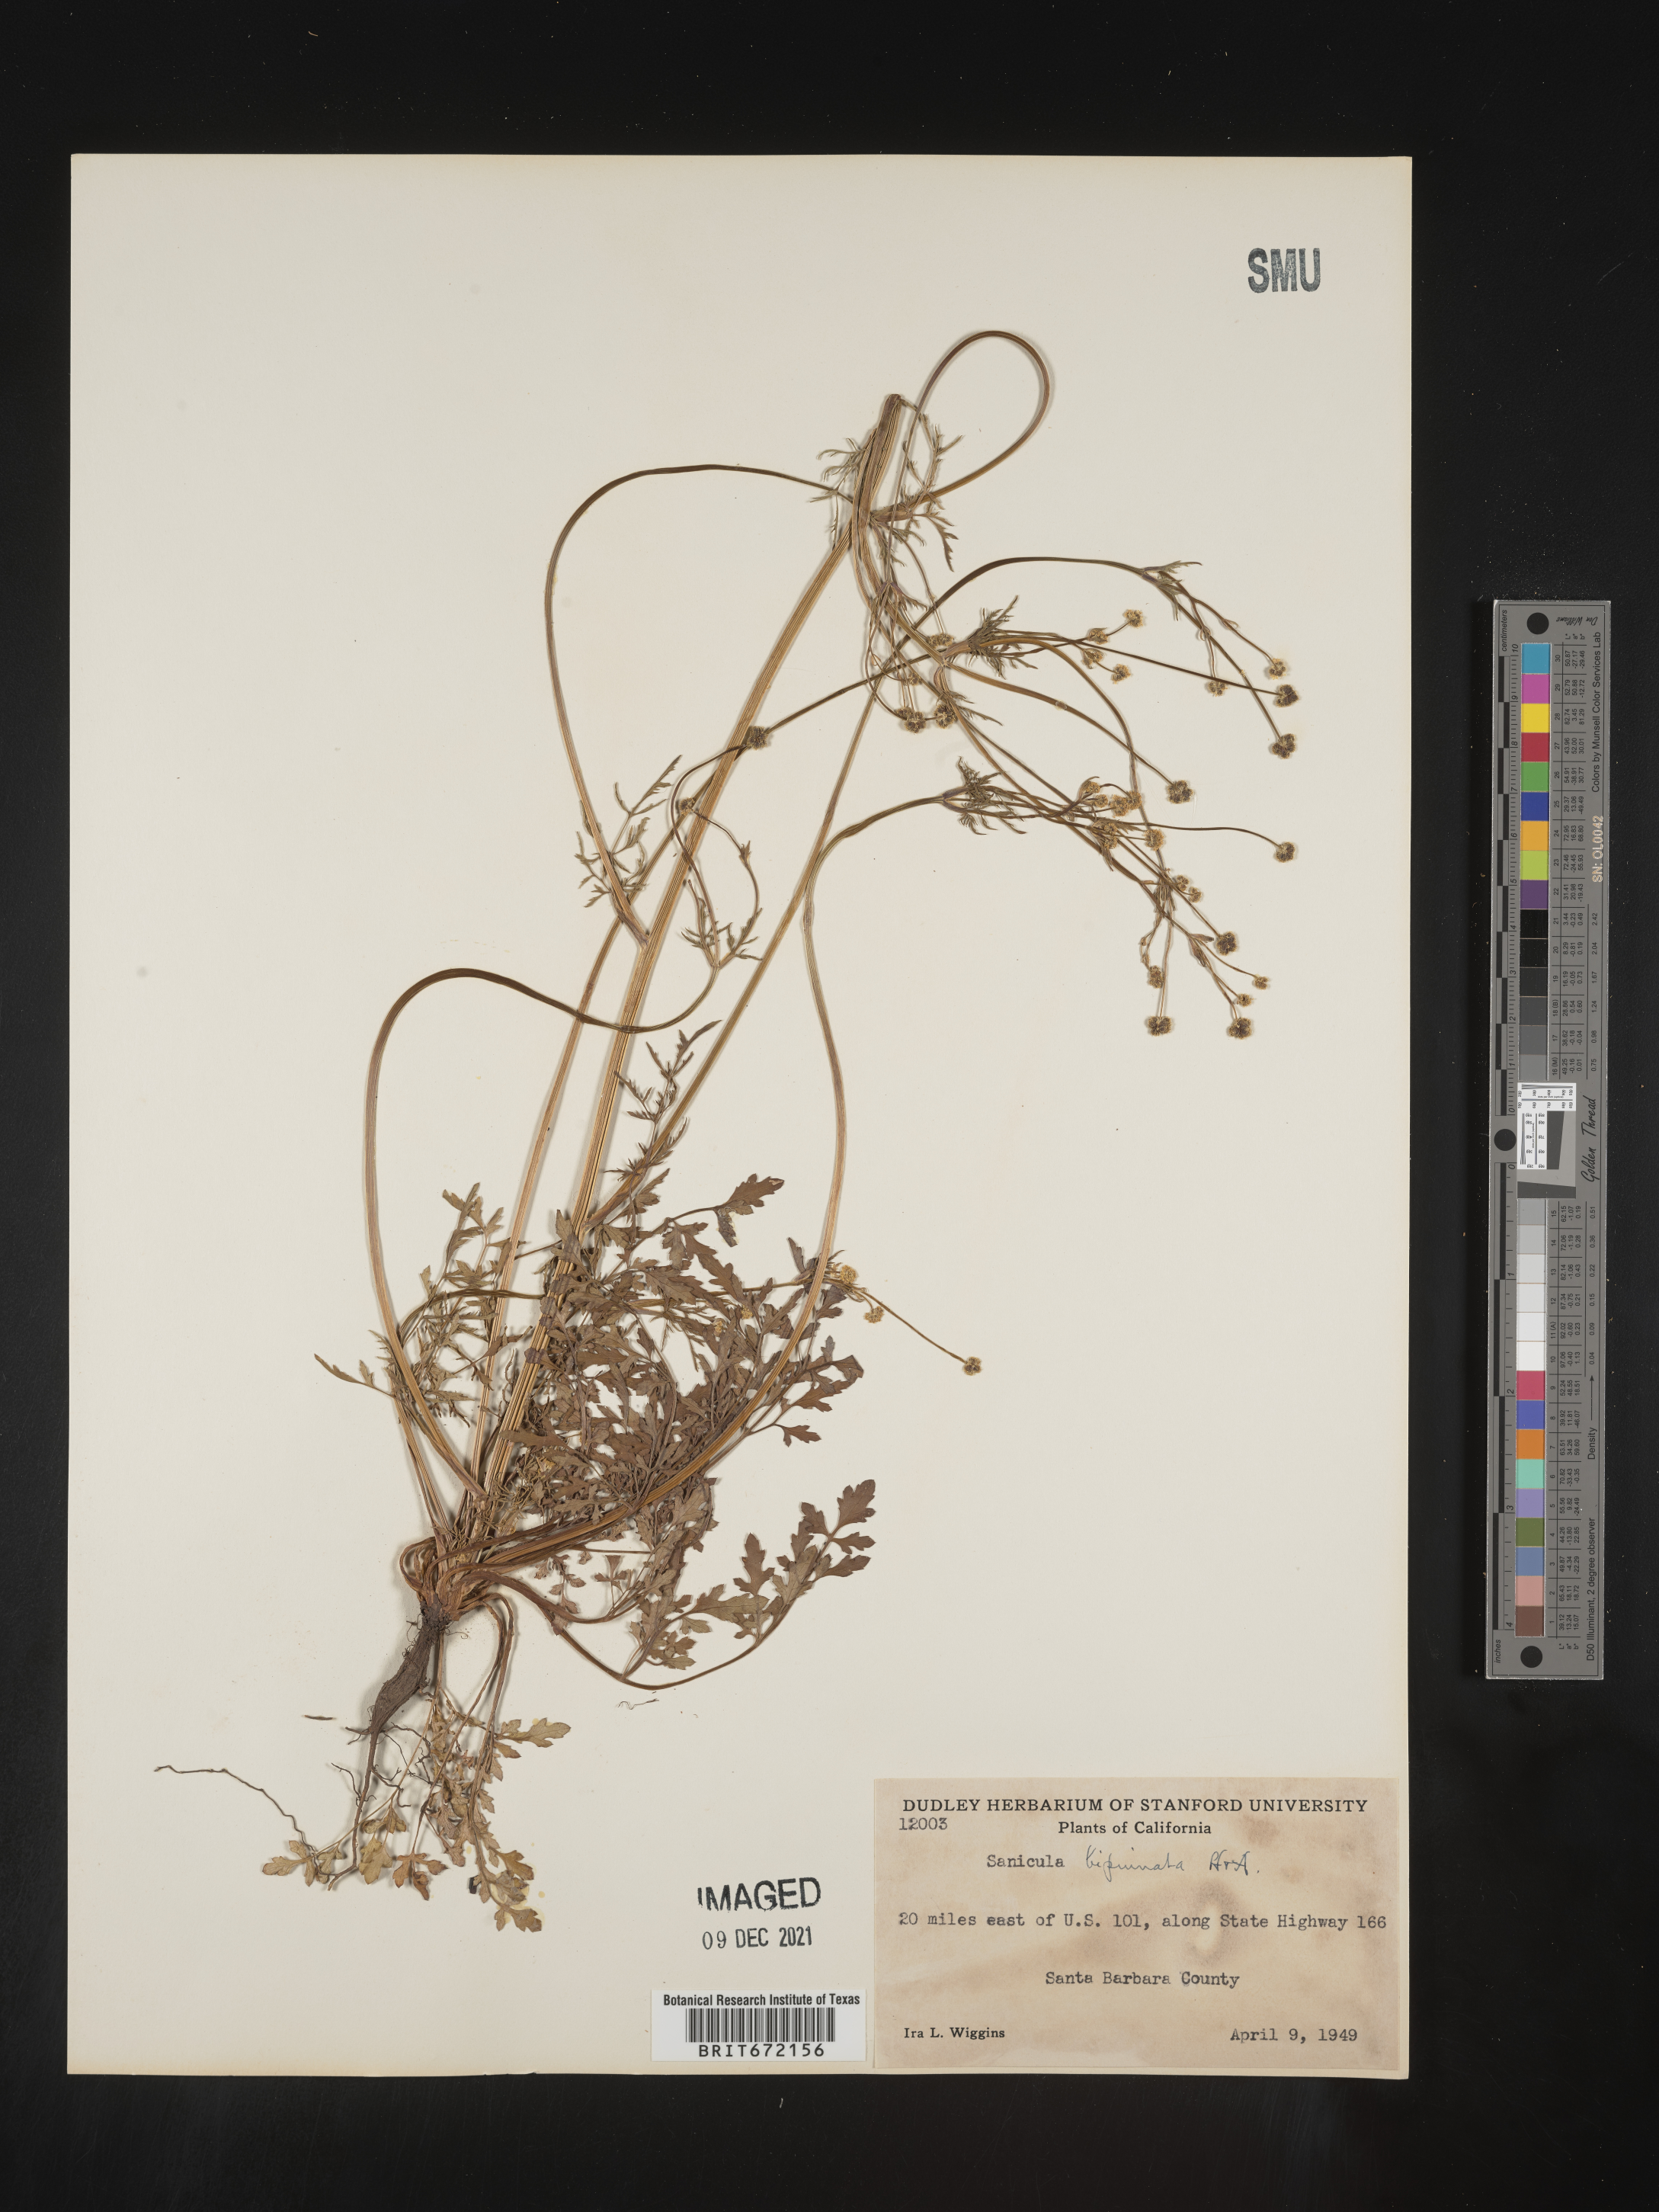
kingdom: Plantae
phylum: Tracheophyta
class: Magnoliopsida
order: Apiales
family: Apiaceae
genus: Sanicula
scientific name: Sanicula
